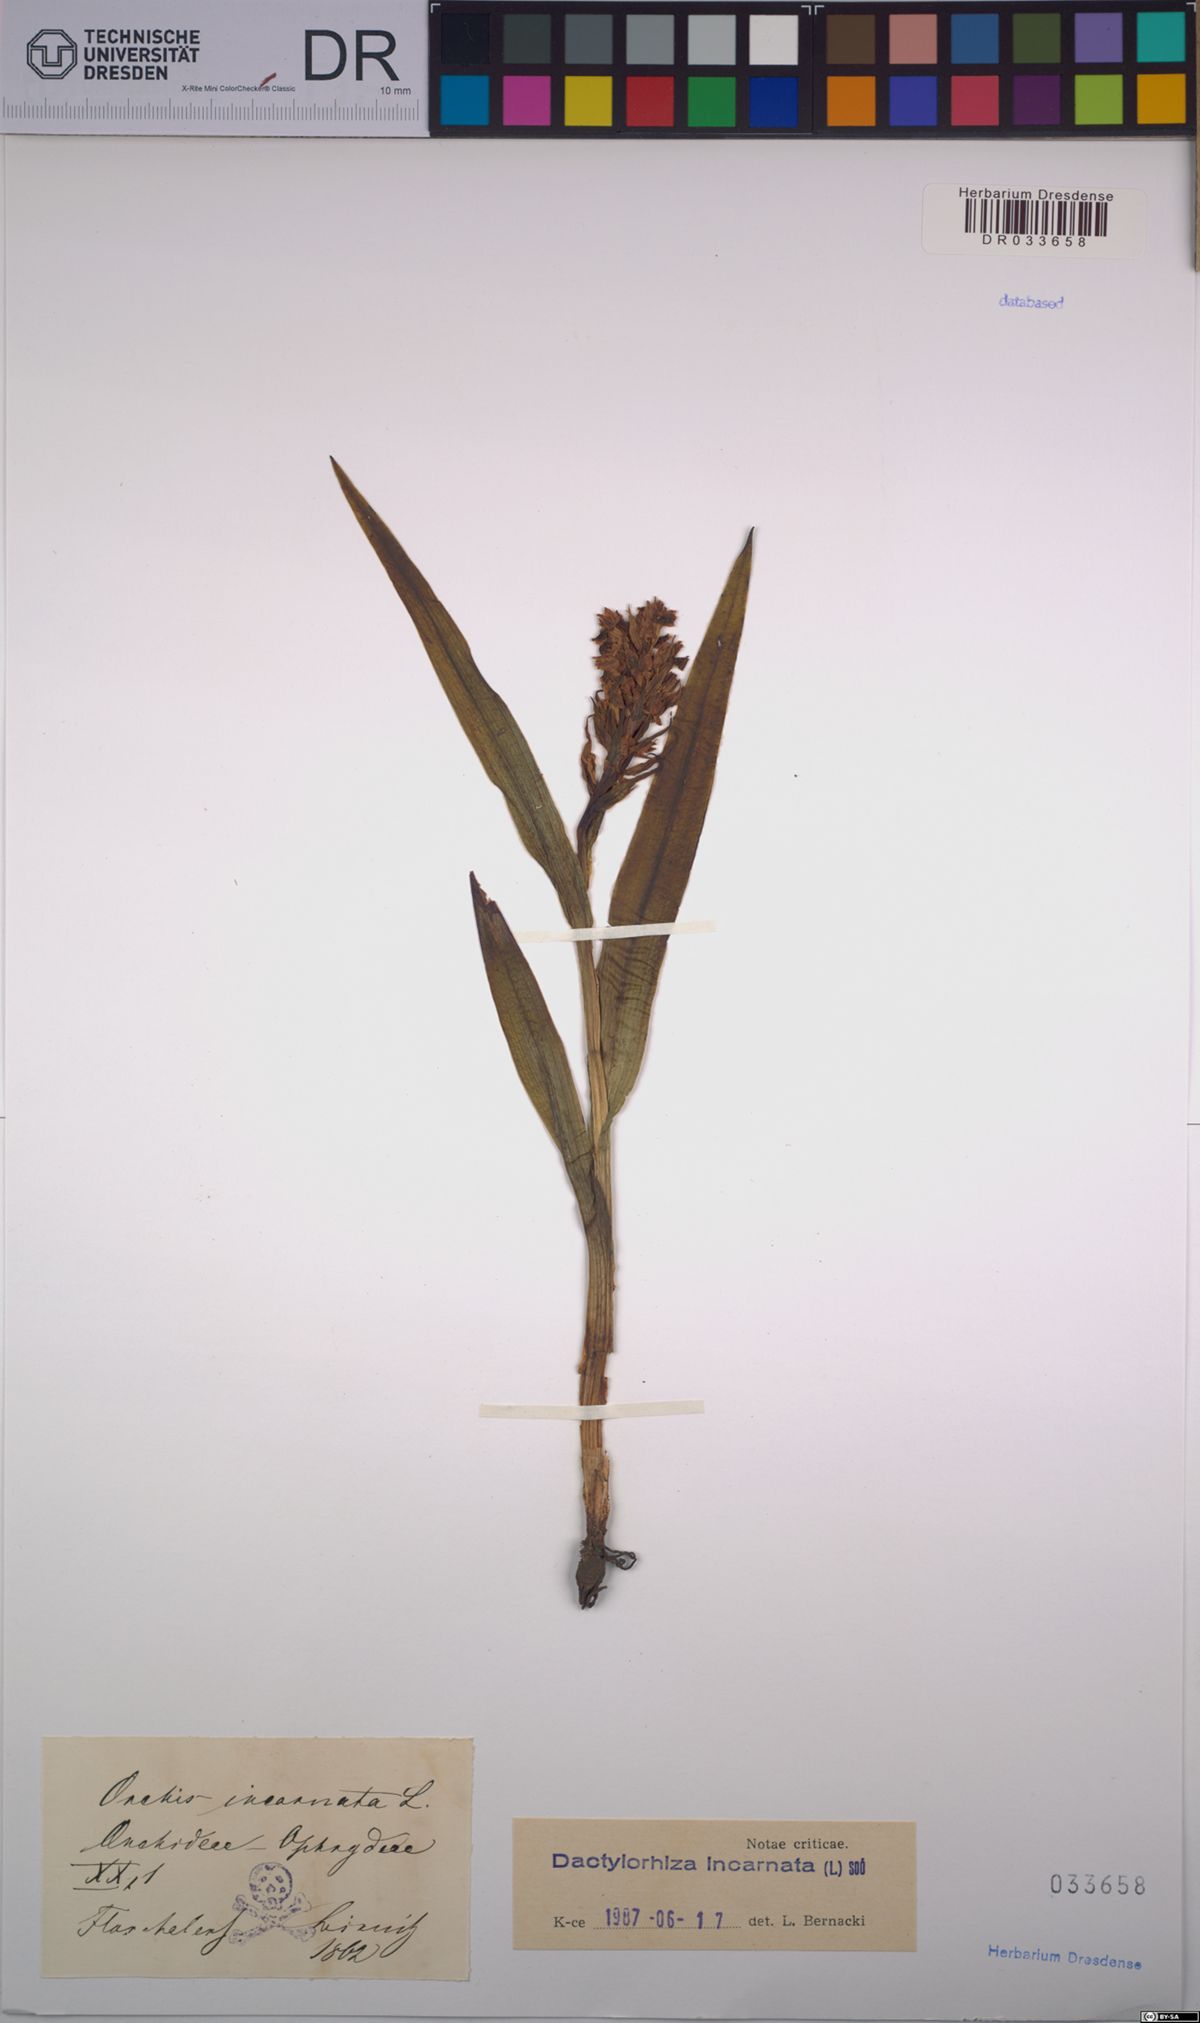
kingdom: Plantae
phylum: Tracheophyta
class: Liliopsida
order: Asparagales
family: Orchidaceae
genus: Dactylorhiza
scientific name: Dactylorhiza incarnata
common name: Early marsh-orchid
